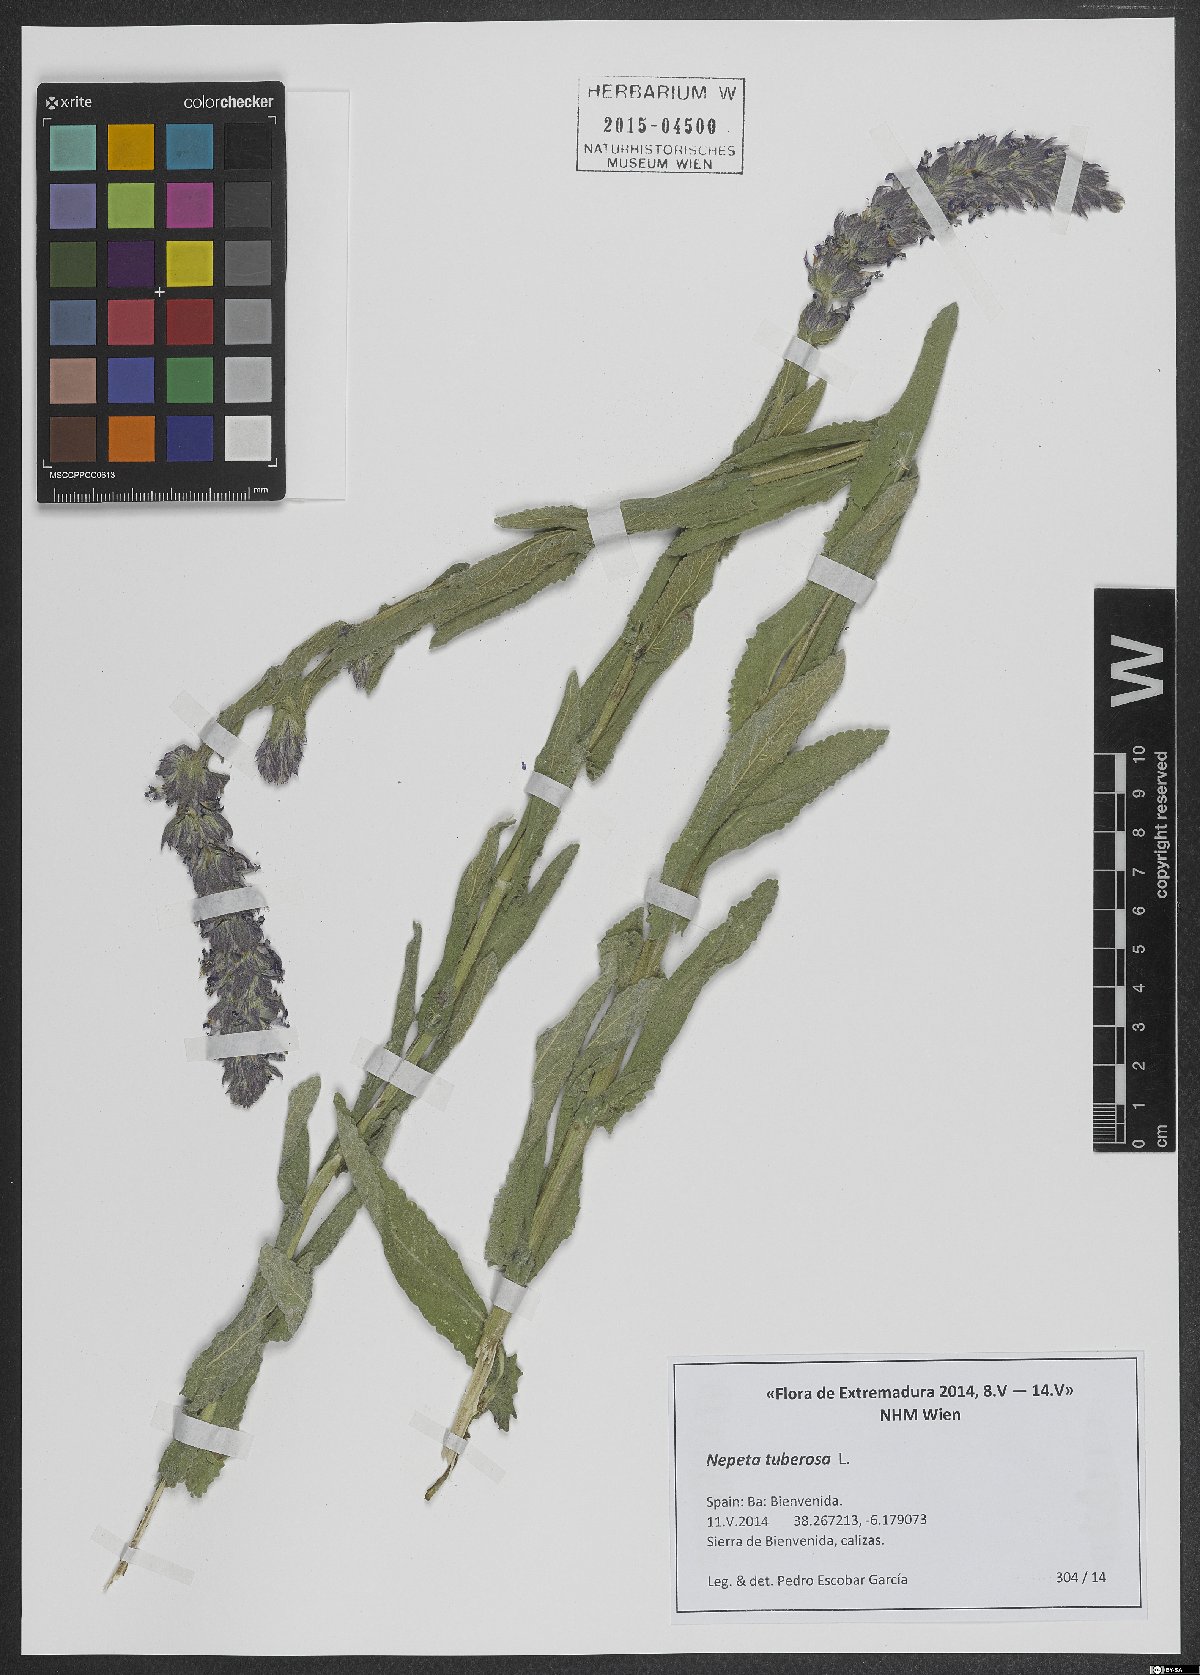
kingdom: Plantae
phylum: Tracheophyta
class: Magnoliopsida
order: Lamiales
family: Lamiaceae
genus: Nepeta
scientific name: Nepeta tuberosa
